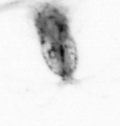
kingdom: Animalia
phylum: Arthropoda
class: Copepoda
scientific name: Copepoda
